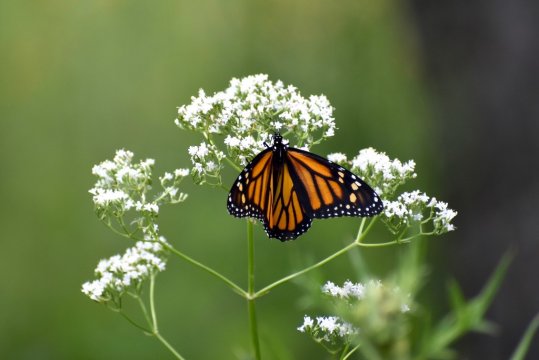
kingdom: Animalia
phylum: Arthropoda
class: Insecta
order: Lepidoptera
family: Nymphalidae
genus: Danaus
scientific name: Danaus plexippus
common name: Monarch
